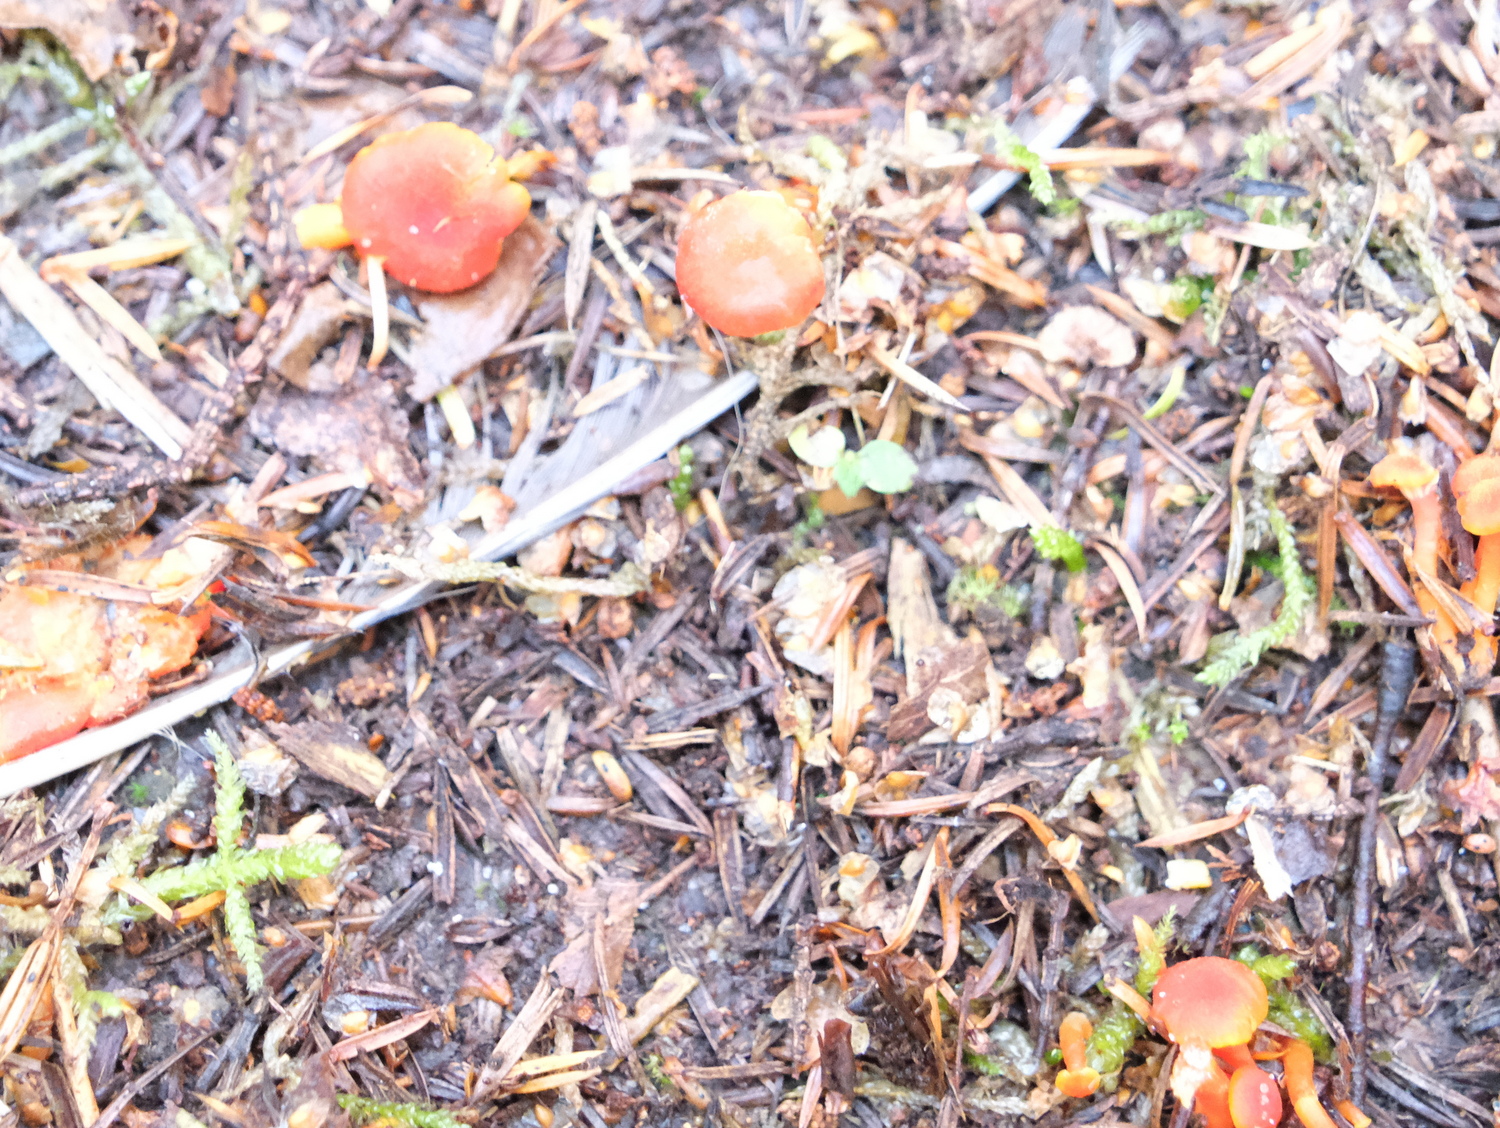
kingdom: Fungi
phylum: Basidiomycota
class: Agaricomycetes
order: Agaricales
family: Hygrophoraceae
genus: Hygrocybe
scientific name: Hygrocybe miniata
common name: mønje-vokshat
